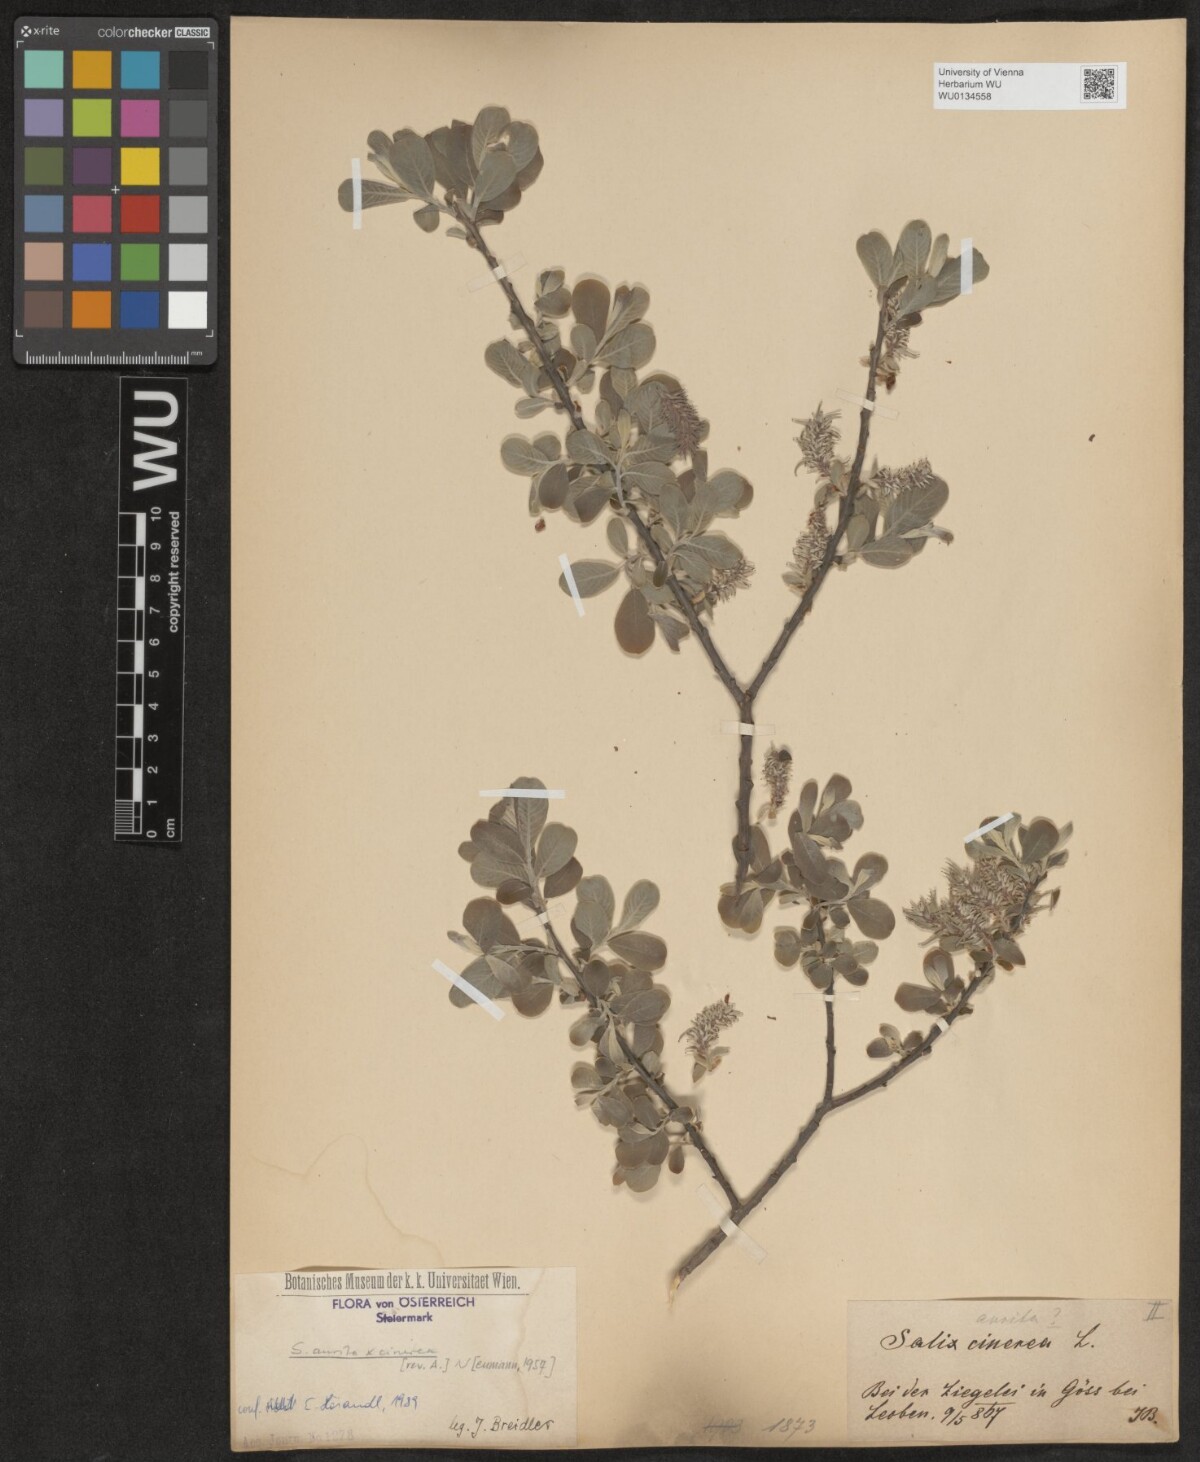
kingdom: Plantae
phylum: Tracheophyta
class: Magnoliopsida
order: Malpighiales
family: Salicaceae
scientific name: Salicaceae
